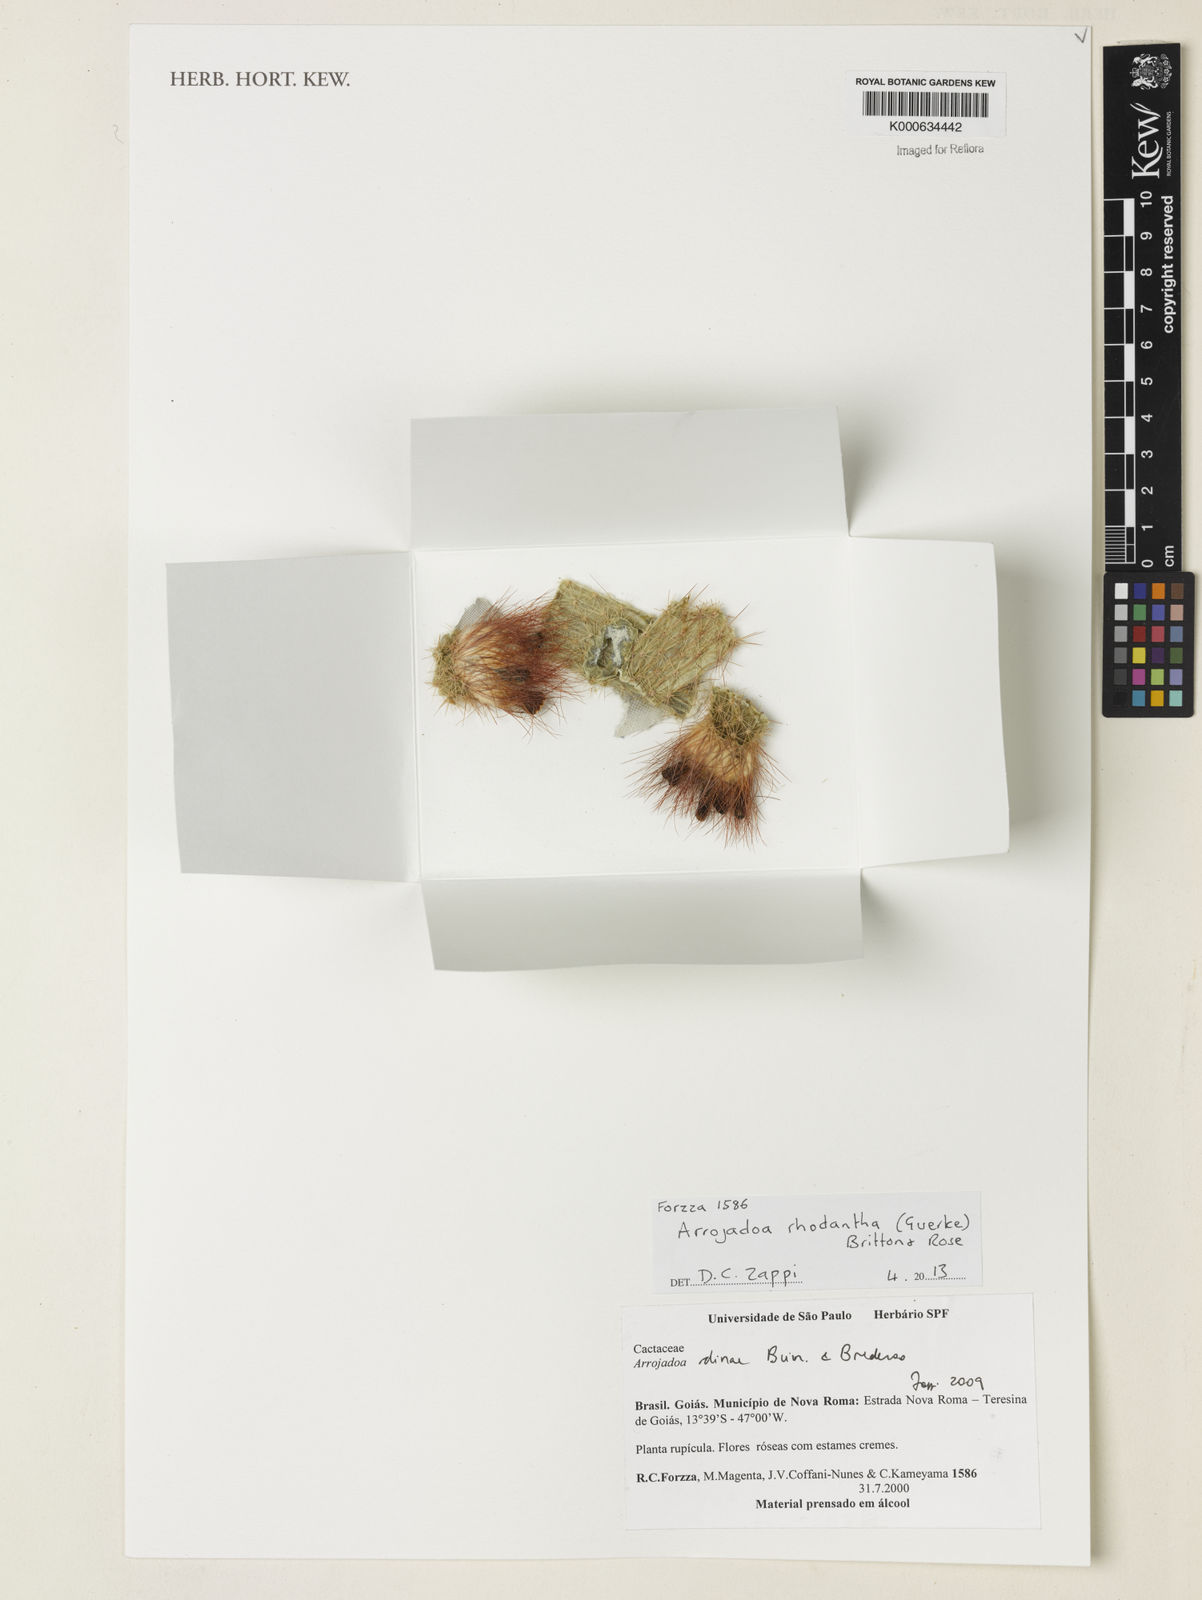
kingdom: Plantae
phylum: Tracheophyta
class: Magnoliopsida
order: Caryophyllales
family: Cactaceae
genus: Arrojadoa
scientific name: Arrojadoa rhodantha
